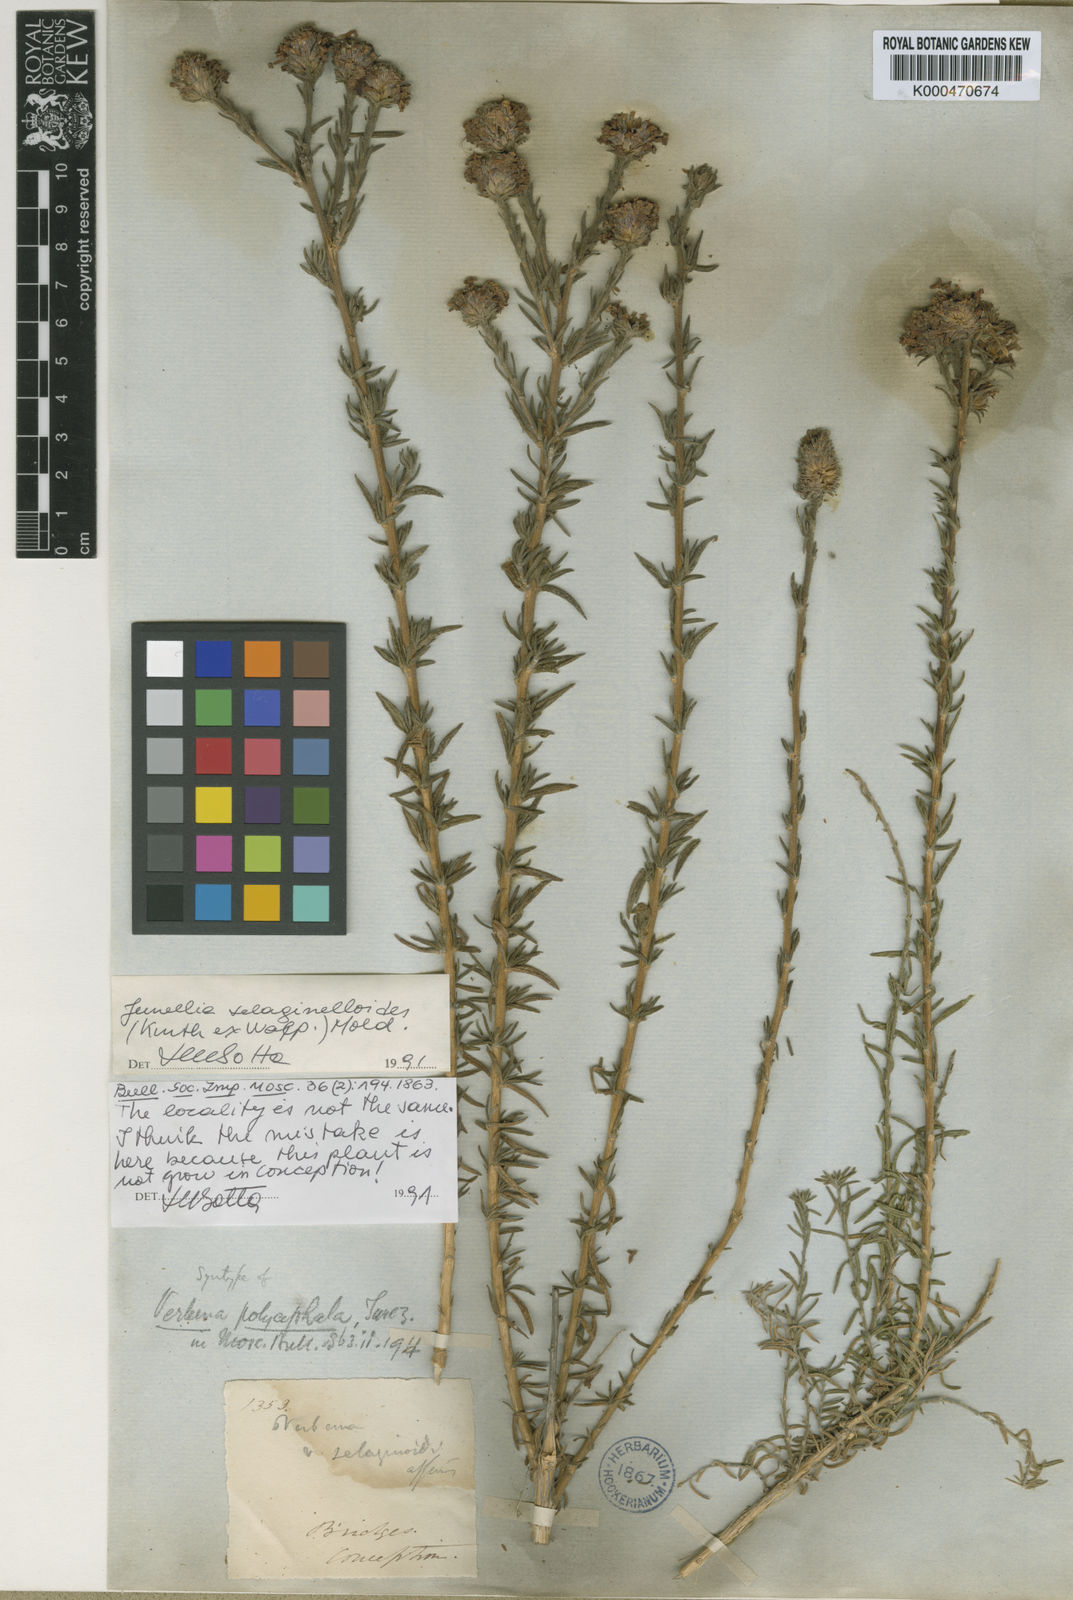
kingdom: Plantae
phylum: Tracheophyta
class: Magnoliopsida
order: Lamiales
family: Verbenaceae
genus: Junellia
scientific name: Junellia selaginoides
